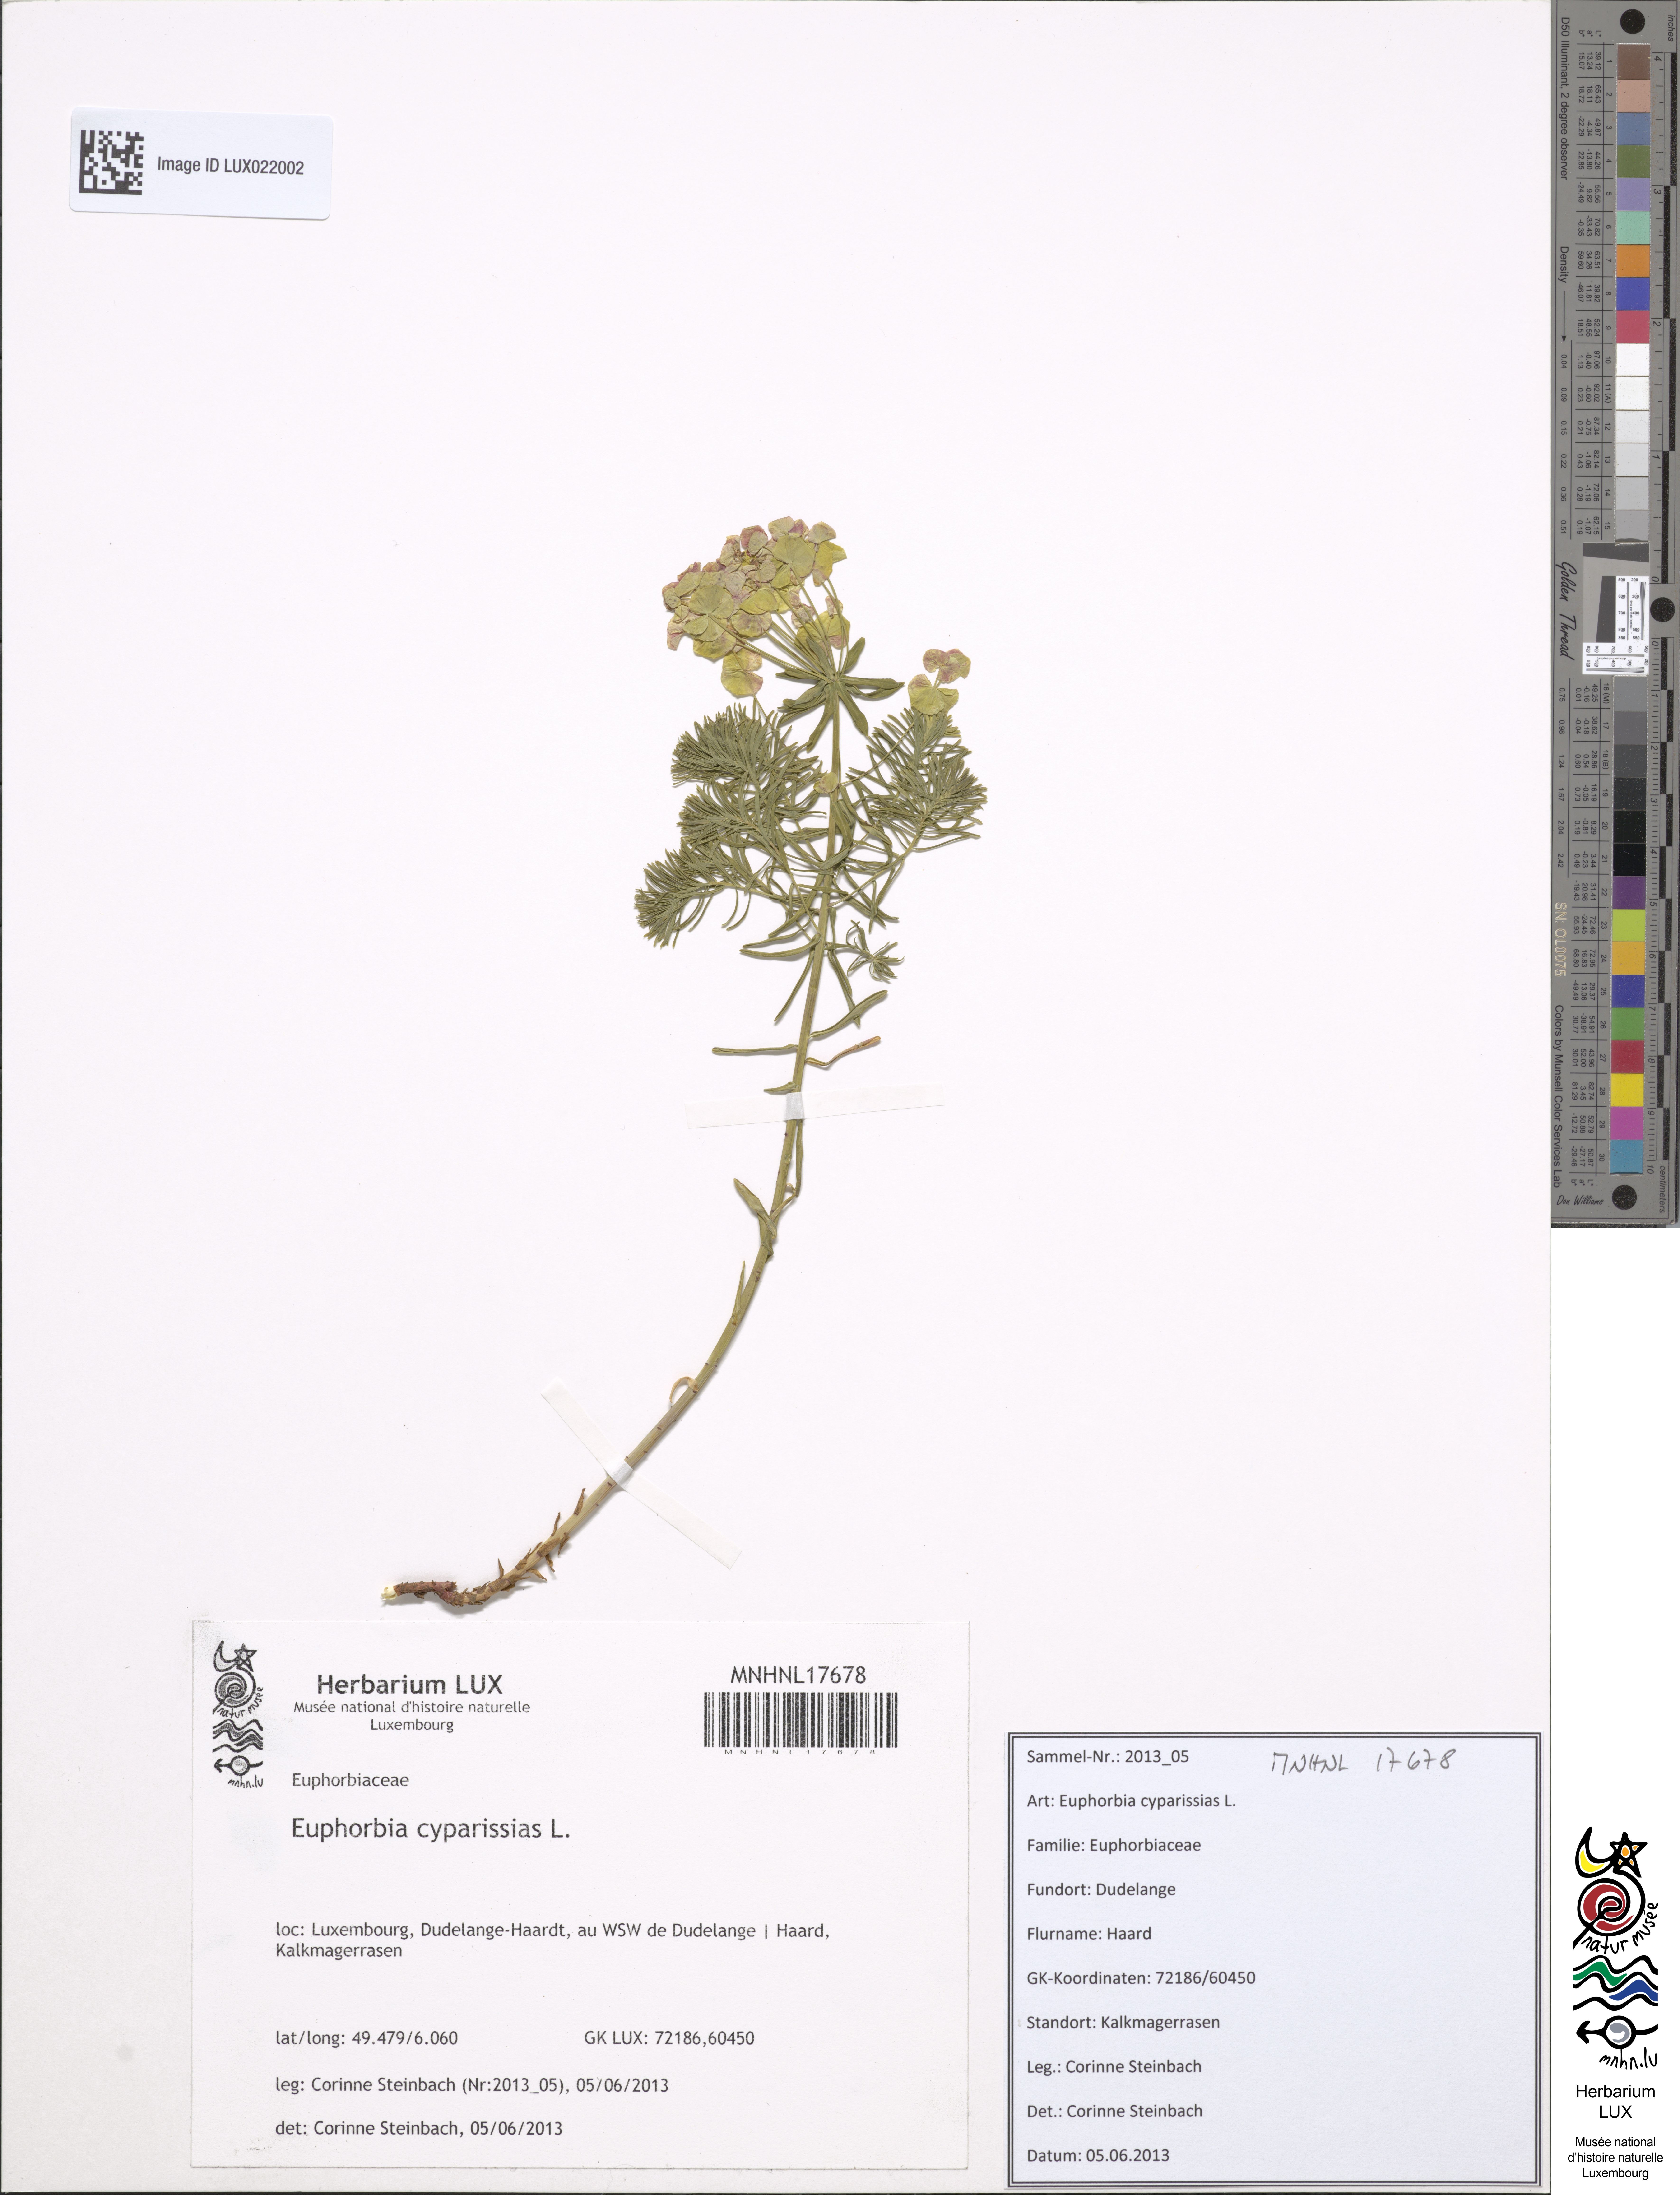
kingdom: Plantae
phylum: Tracheophyta
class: Magnoliopsida
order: Malpighiales
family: Euphorbiaceae
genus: Euphorbia
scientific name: Euphorbia cyparissias
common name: Cypress spurge
